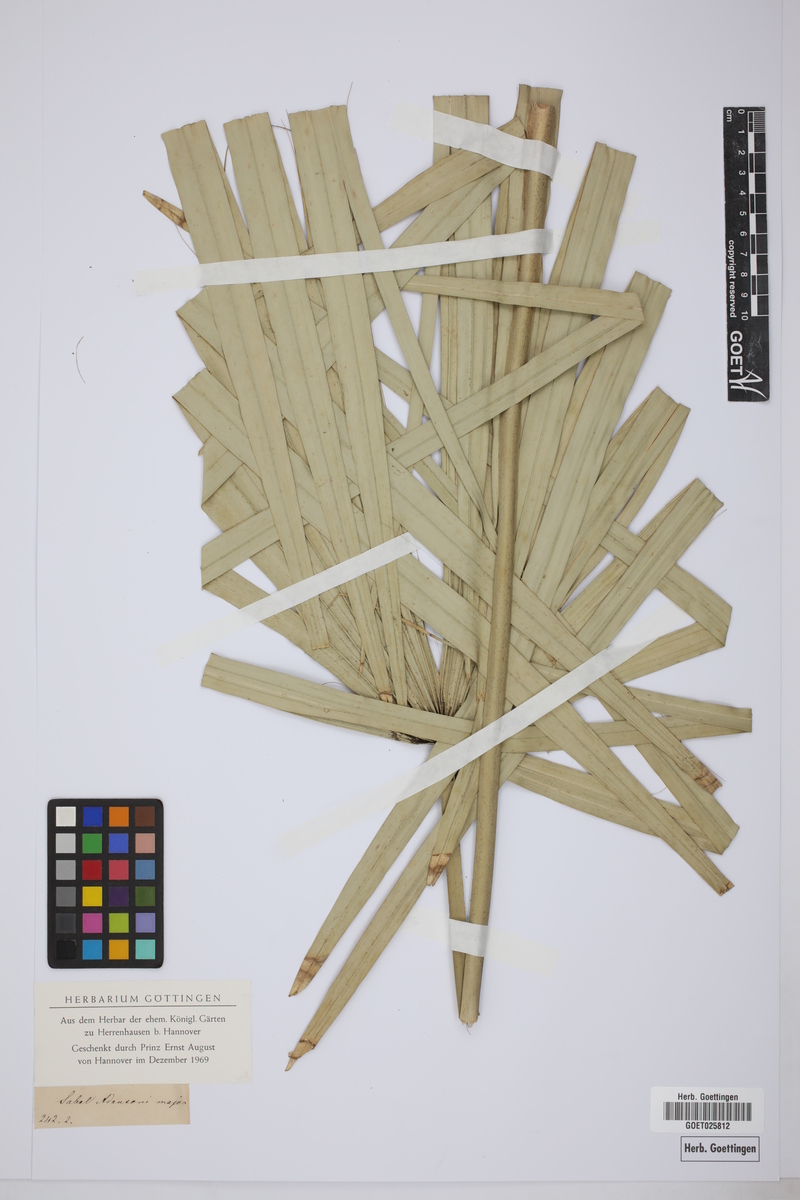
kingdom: Plantae
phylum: Tracheophyta
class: Liliopsida
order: Arecales
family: Arecaceae
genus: Sabal
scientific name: Sabal minor
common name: Dwarf palmetto
